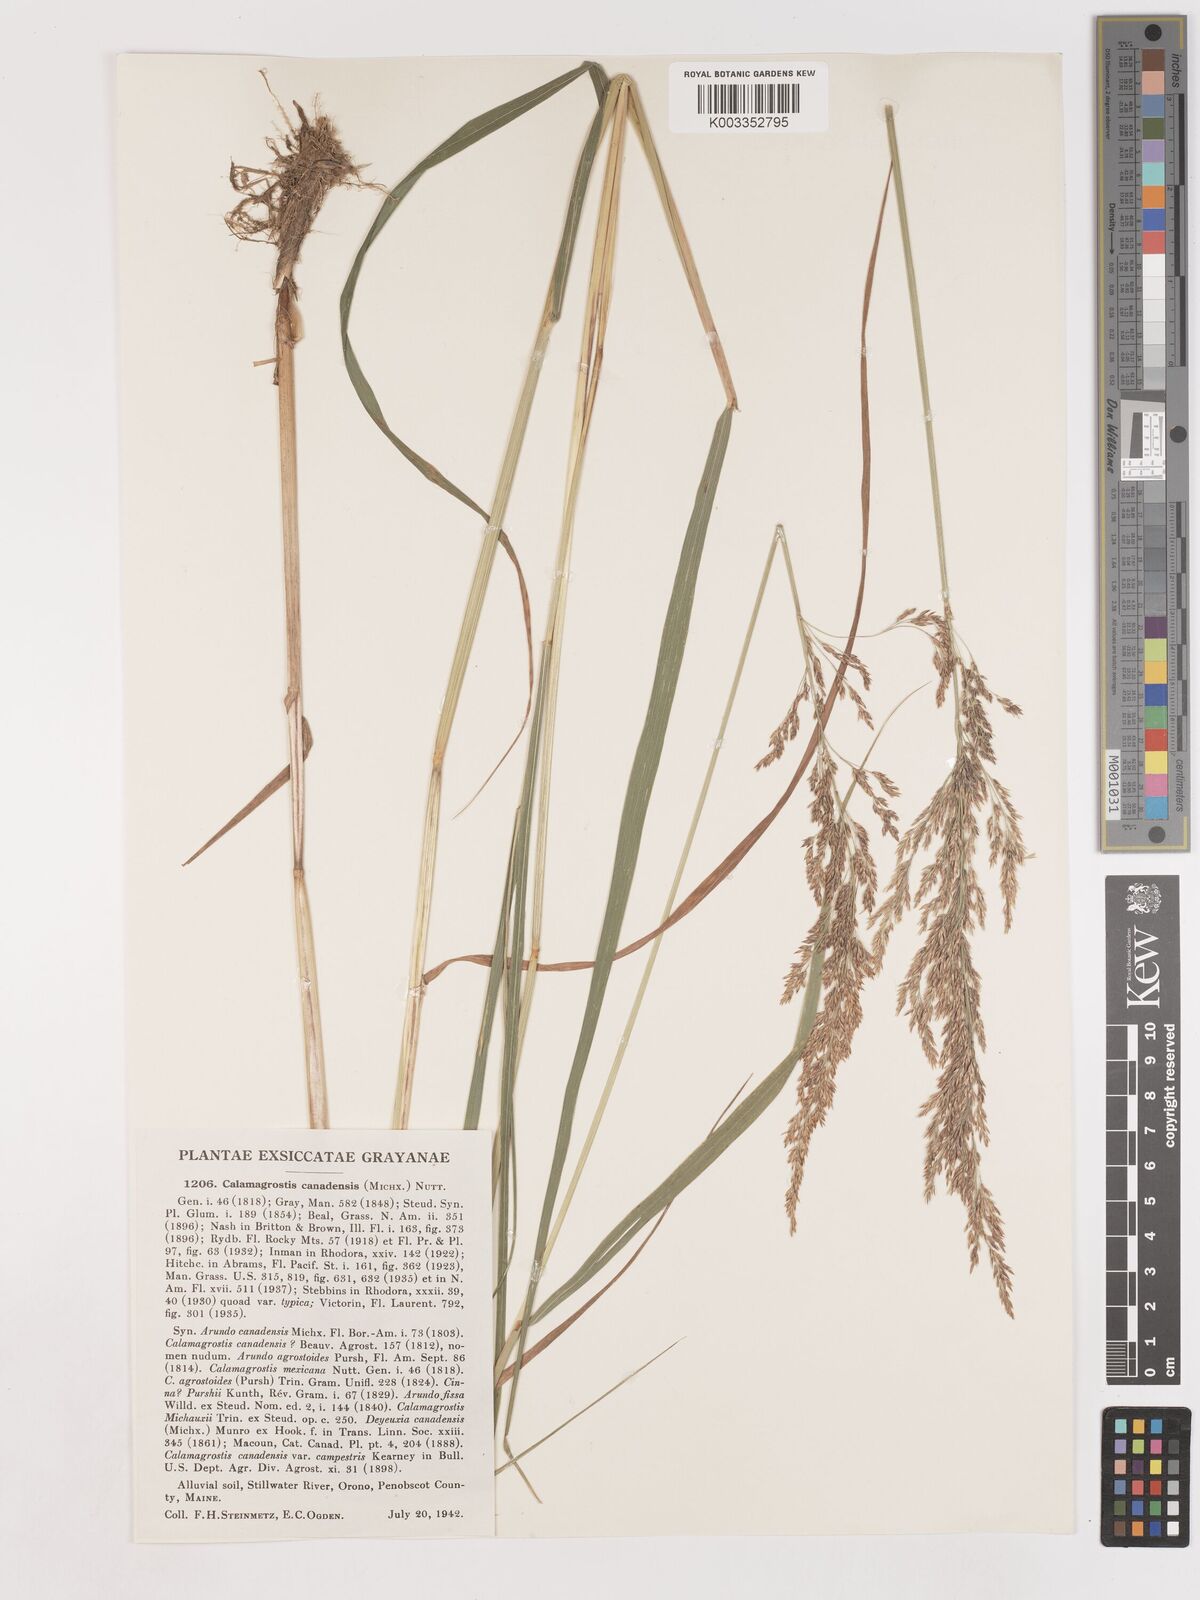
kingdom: Plantae
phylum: Tracheophyta
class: Liliopsida
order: Poales
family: Poaceae
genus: Calamagrostis
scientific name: Calamagrostis canadensis
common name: Canada bluejoint
